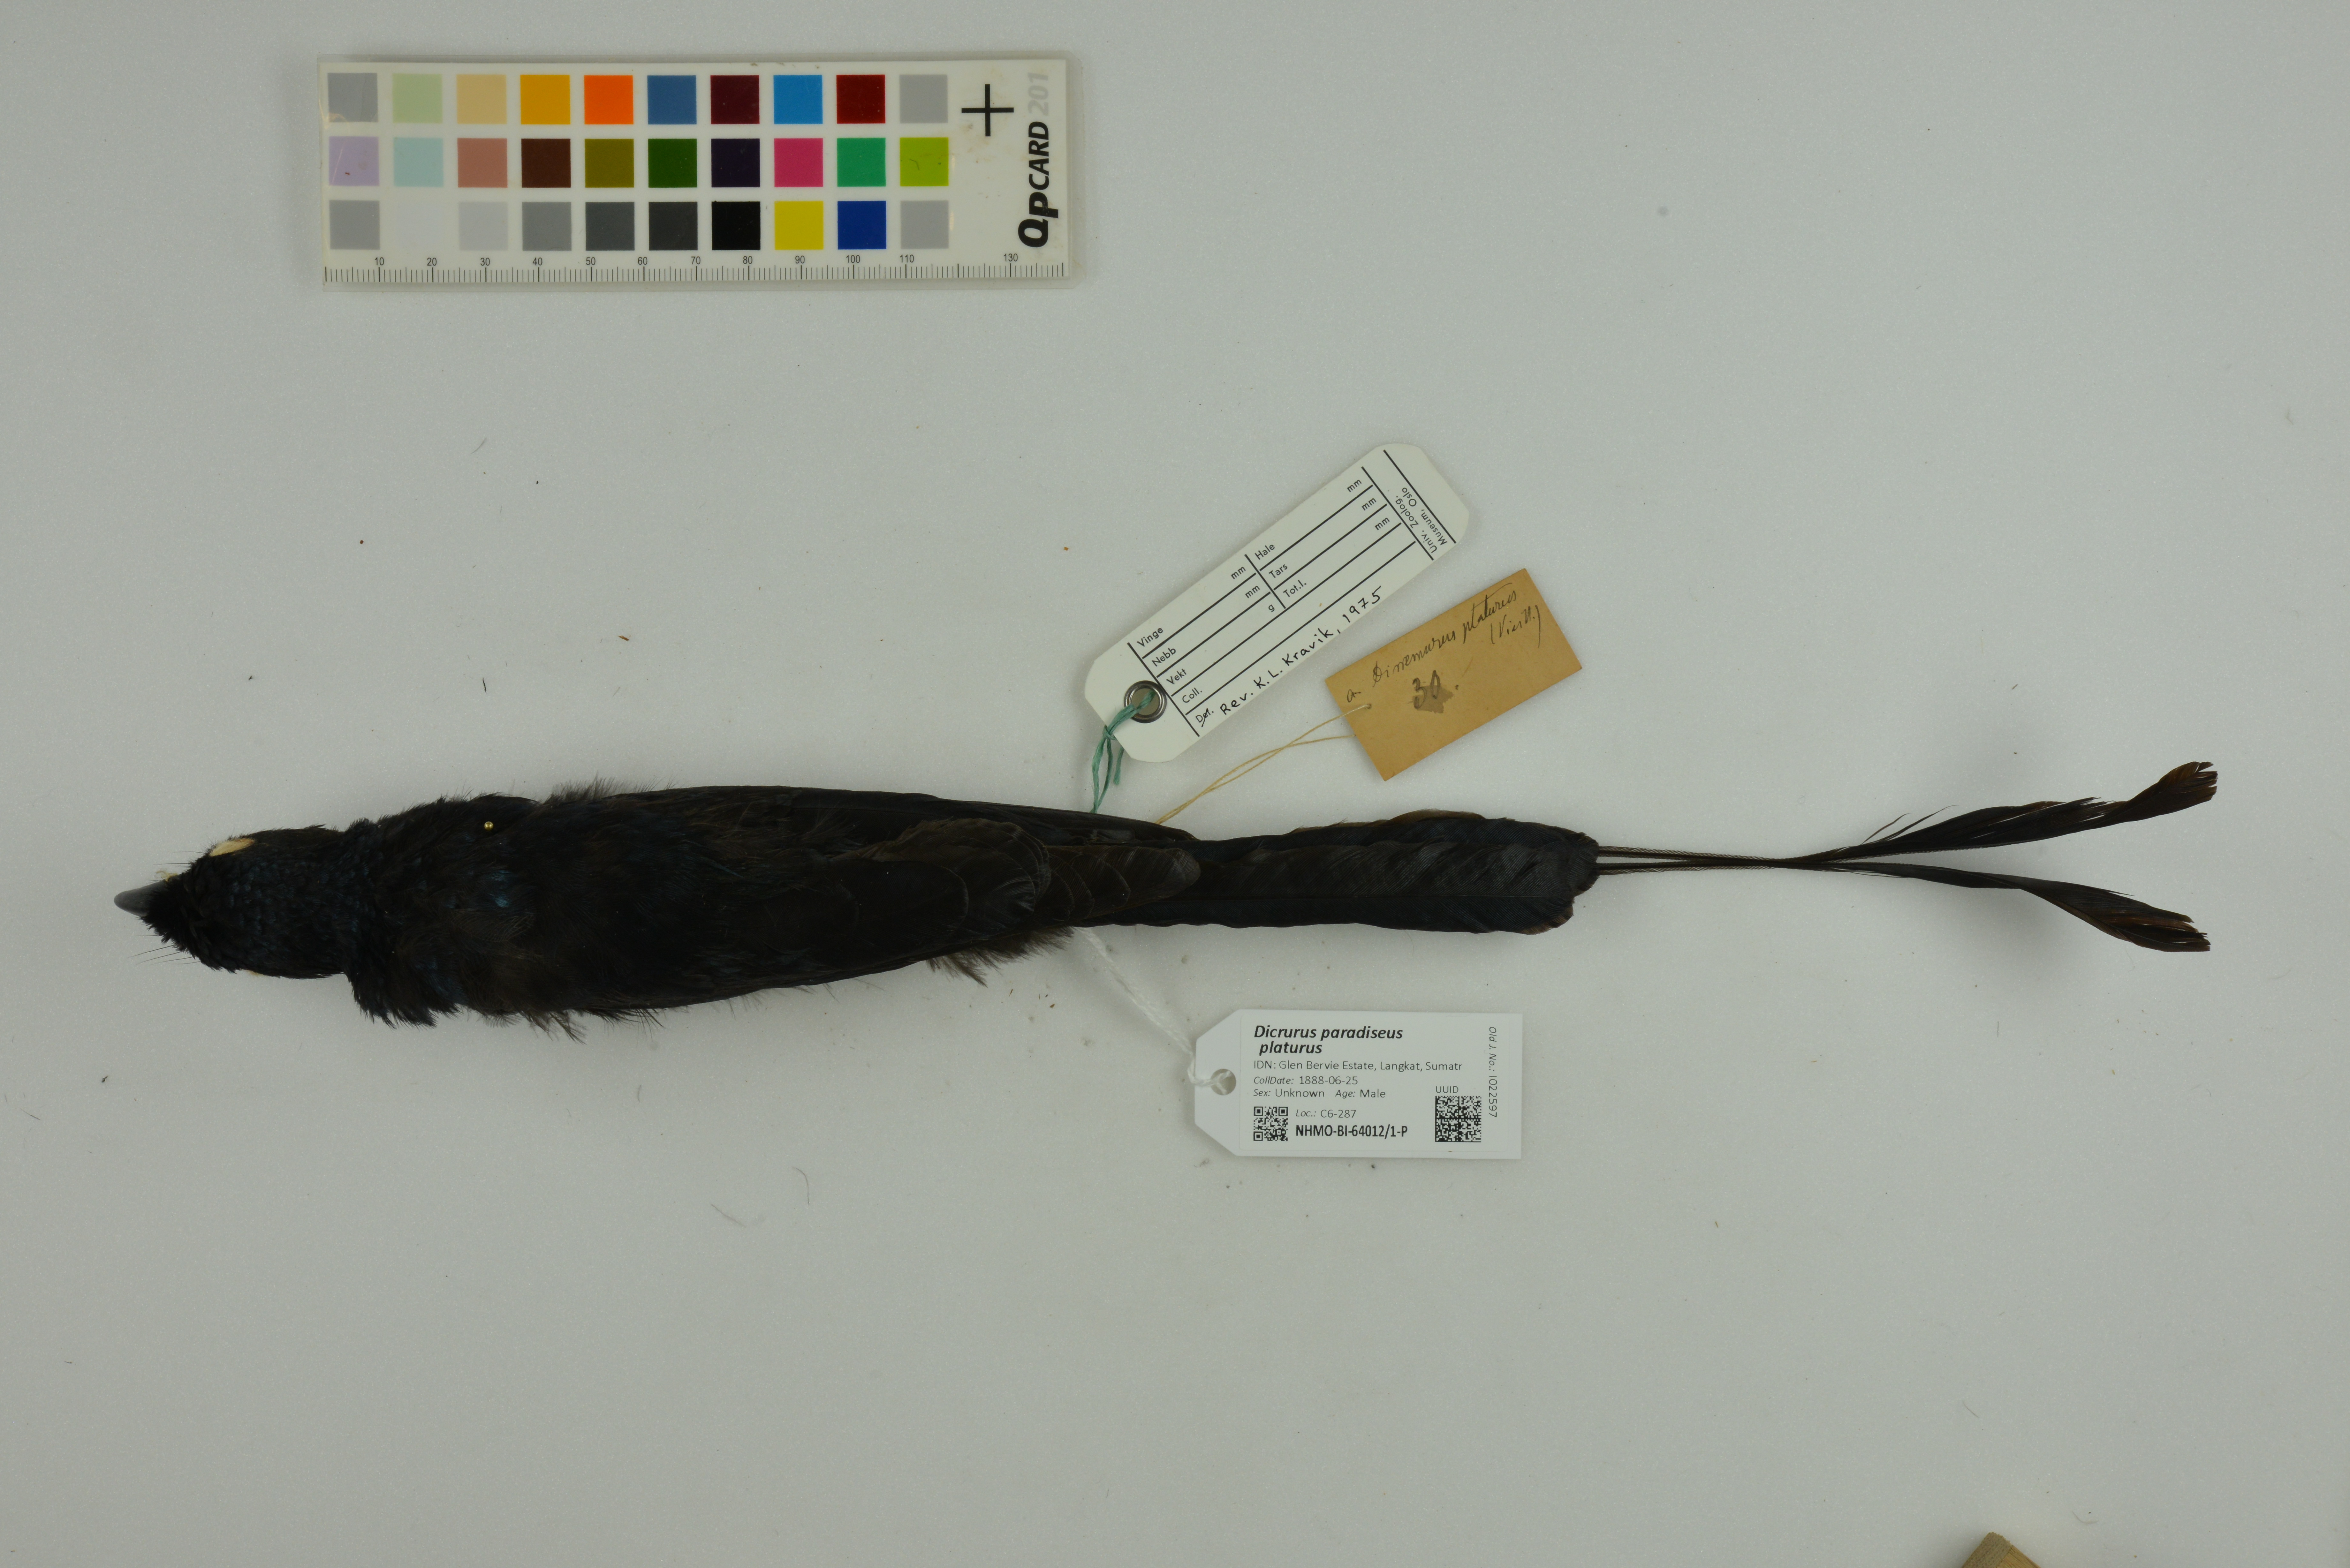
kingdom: Animalia
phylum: Chordata
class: Aves
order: Passeriformes
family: Dicruridae
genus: Dicrurus
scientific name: Dicrurus paradiseus
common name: Greater racket-tailed drongo
